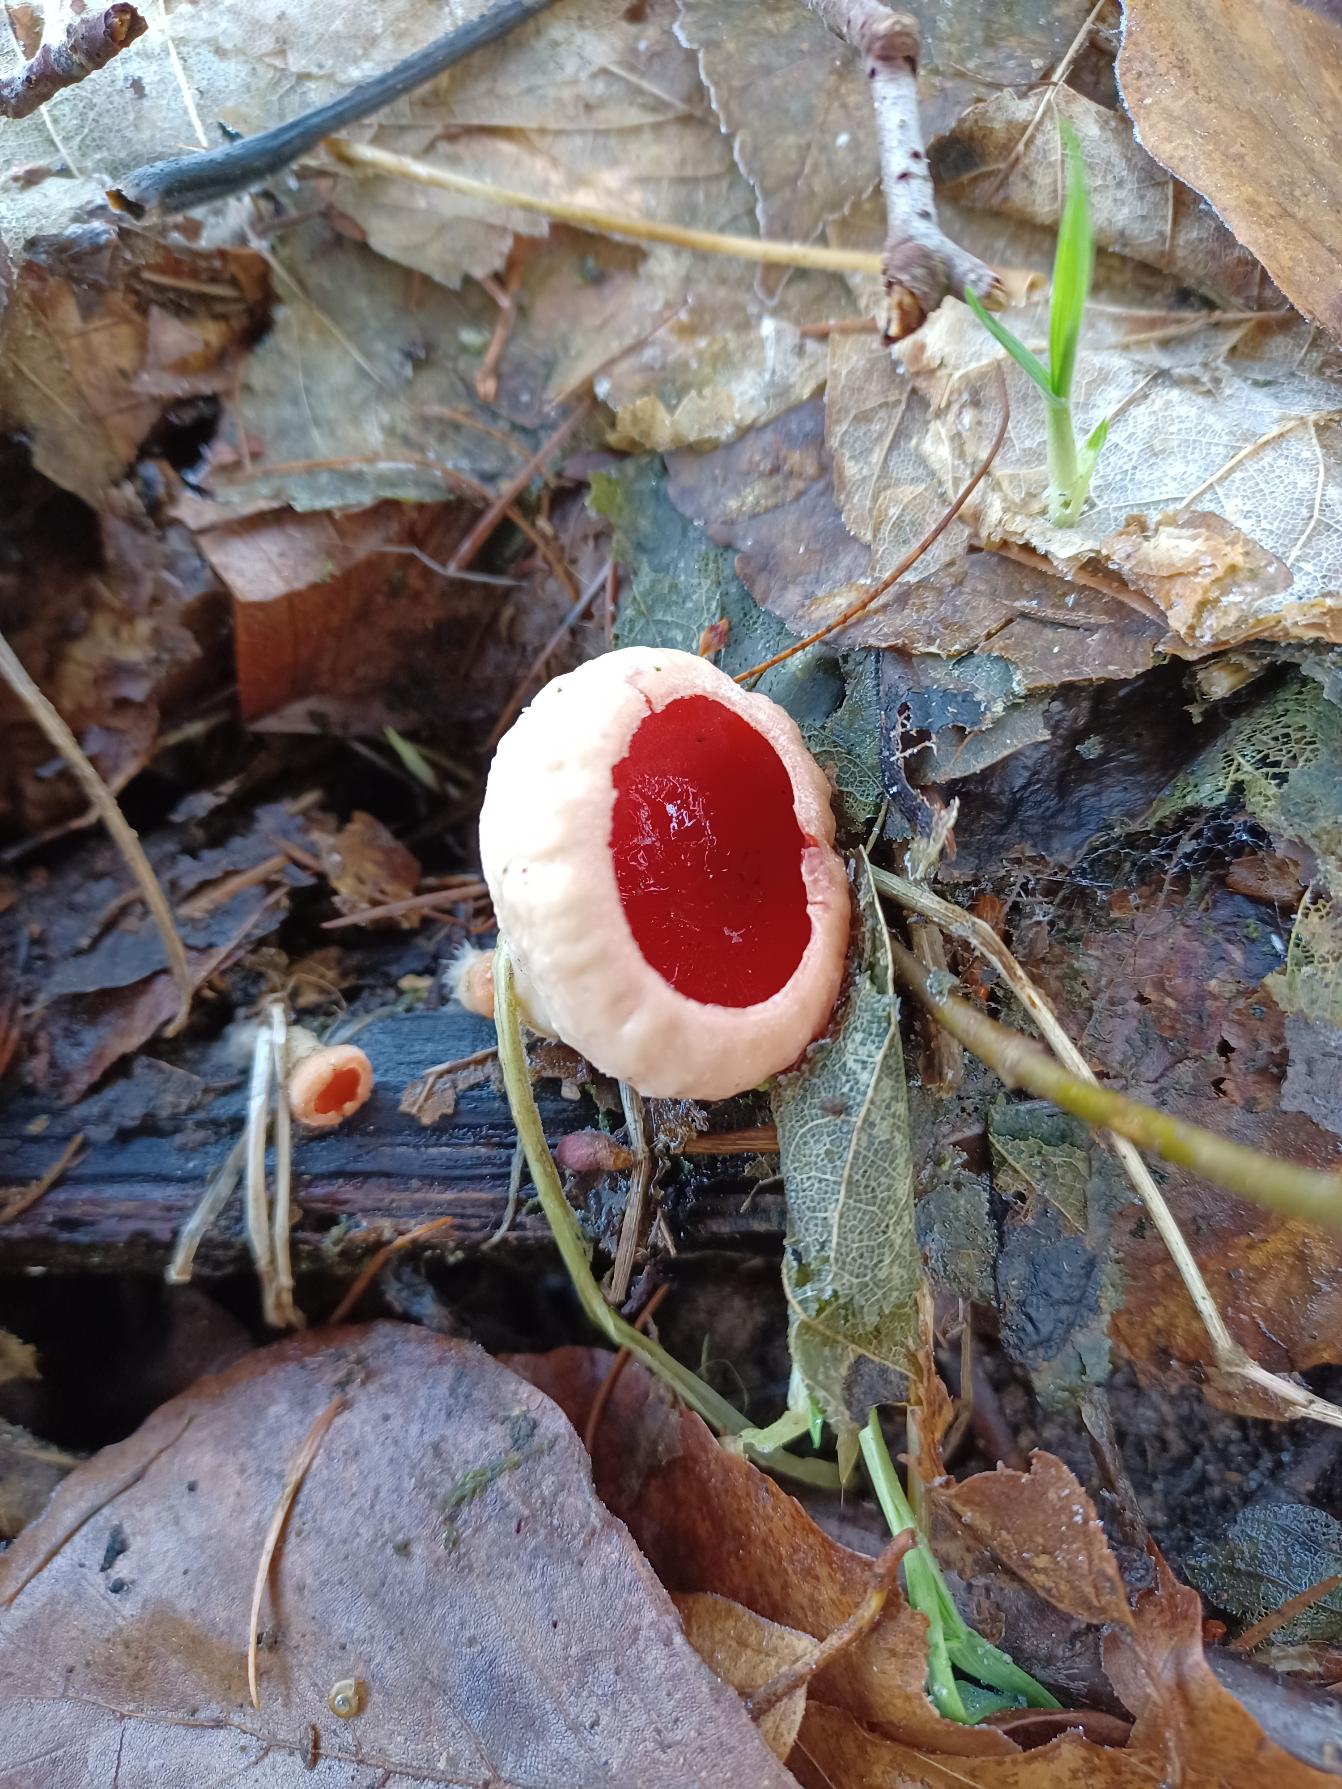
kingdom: Fungi
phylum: Ascomycota
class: Pezizomycetes
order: Pezizales
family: Sarcoscyphaceae
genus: Sarcoscypha
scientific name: Sarcoscypha austriaca
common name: Krølhåret pragtbæger
